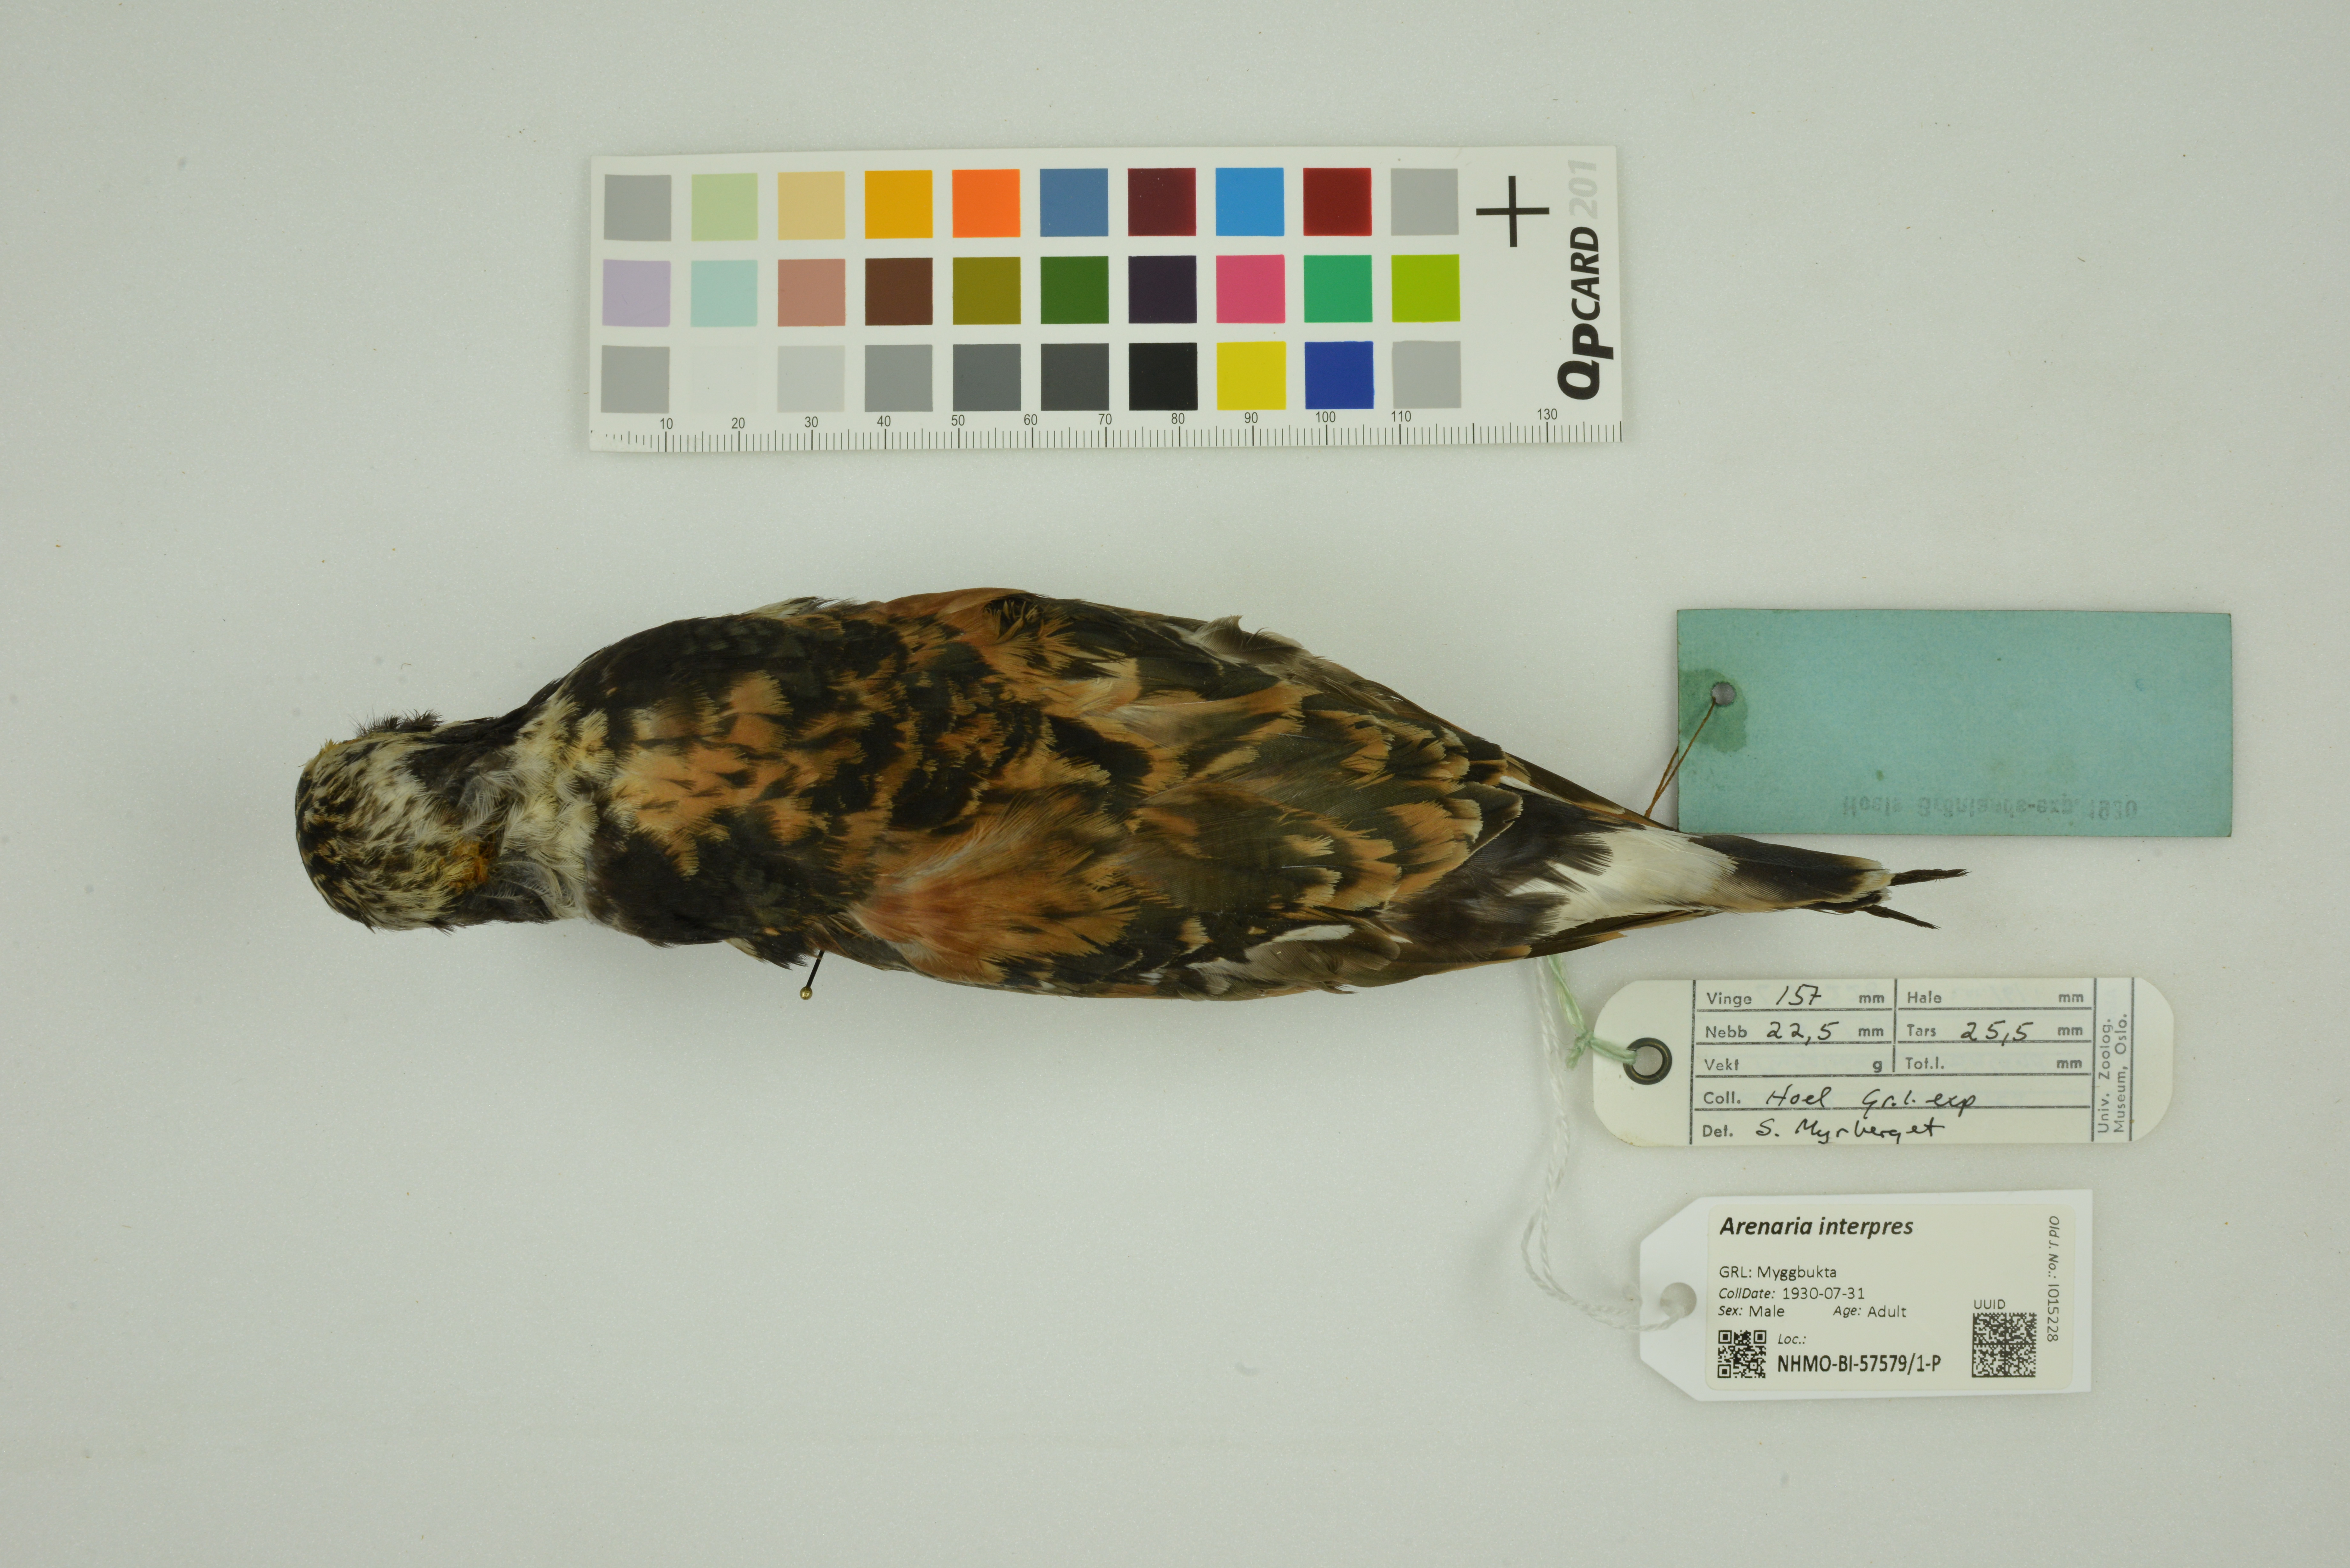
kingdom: Animalia
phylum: Chordata
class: Aves
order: Charadriiformes
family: Scolopacidae
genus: Arenaria
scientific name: Arenaria interpres
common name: Ruddy turnstone
